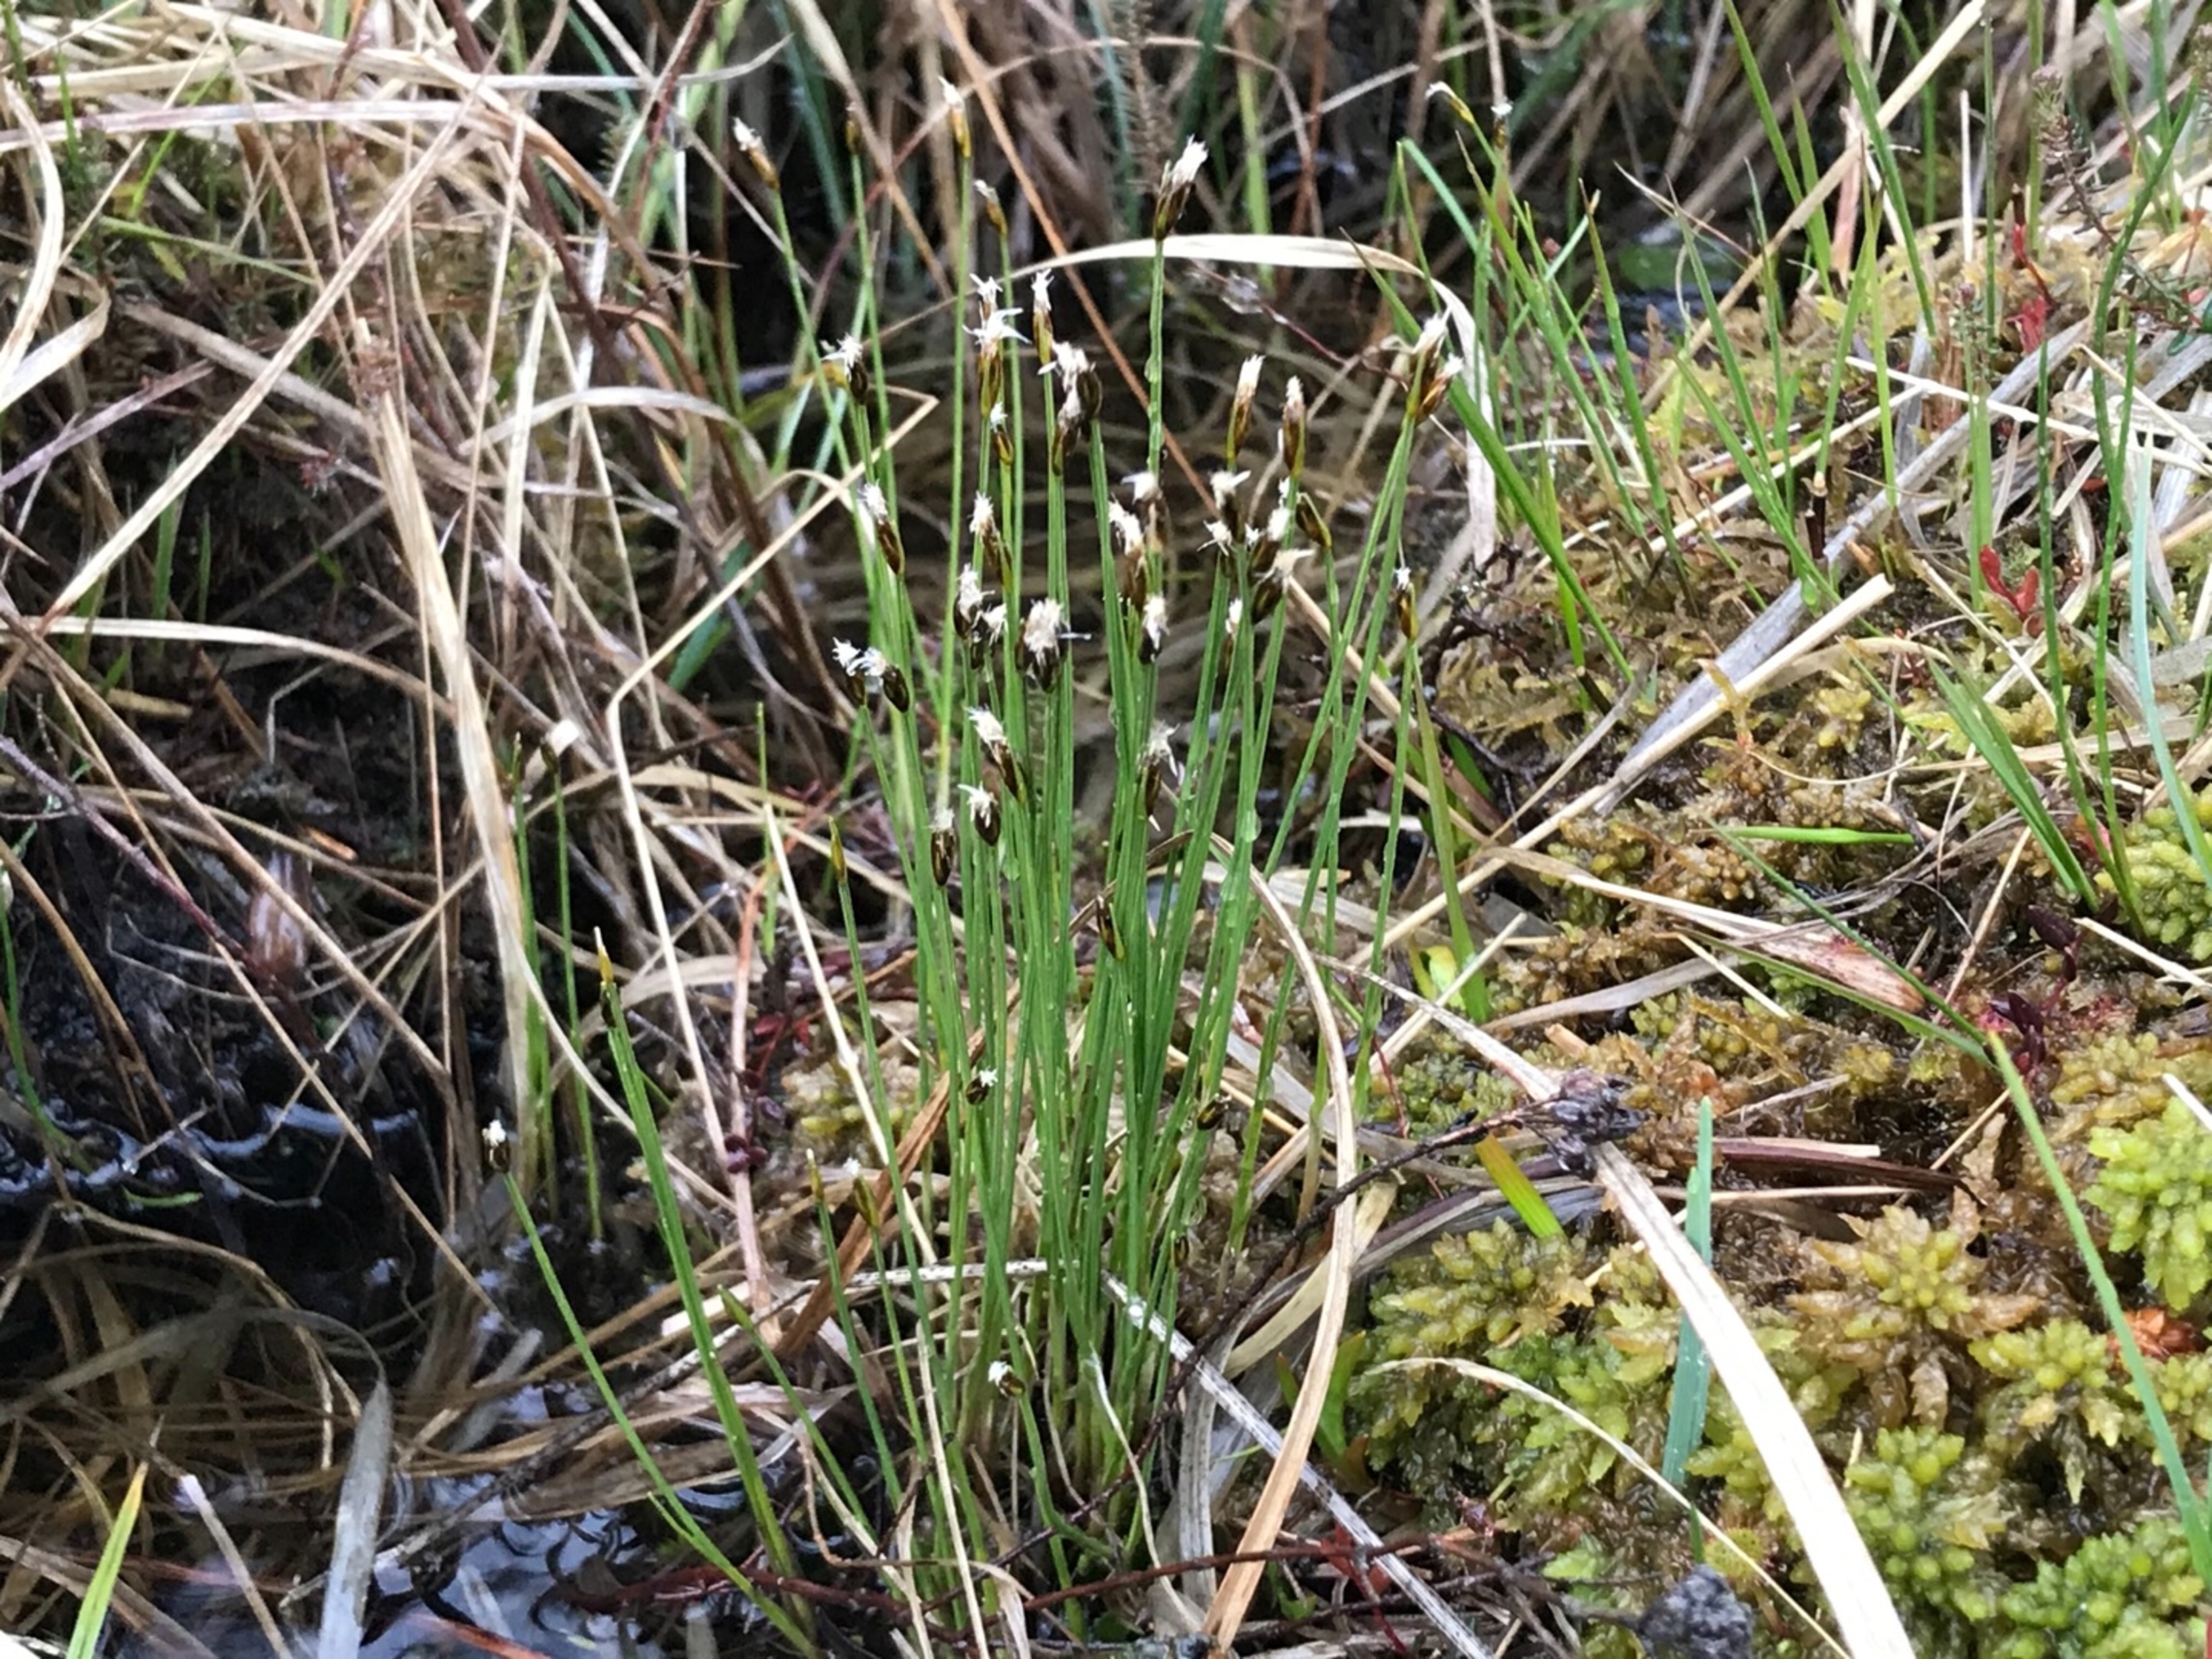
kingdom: Plantae
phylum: Tracheophyta
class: Liliopsida
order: Poales
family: Cyperaceae
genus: Trichophorum
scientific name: Trichophorum alpinum
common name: Liden kæruld
